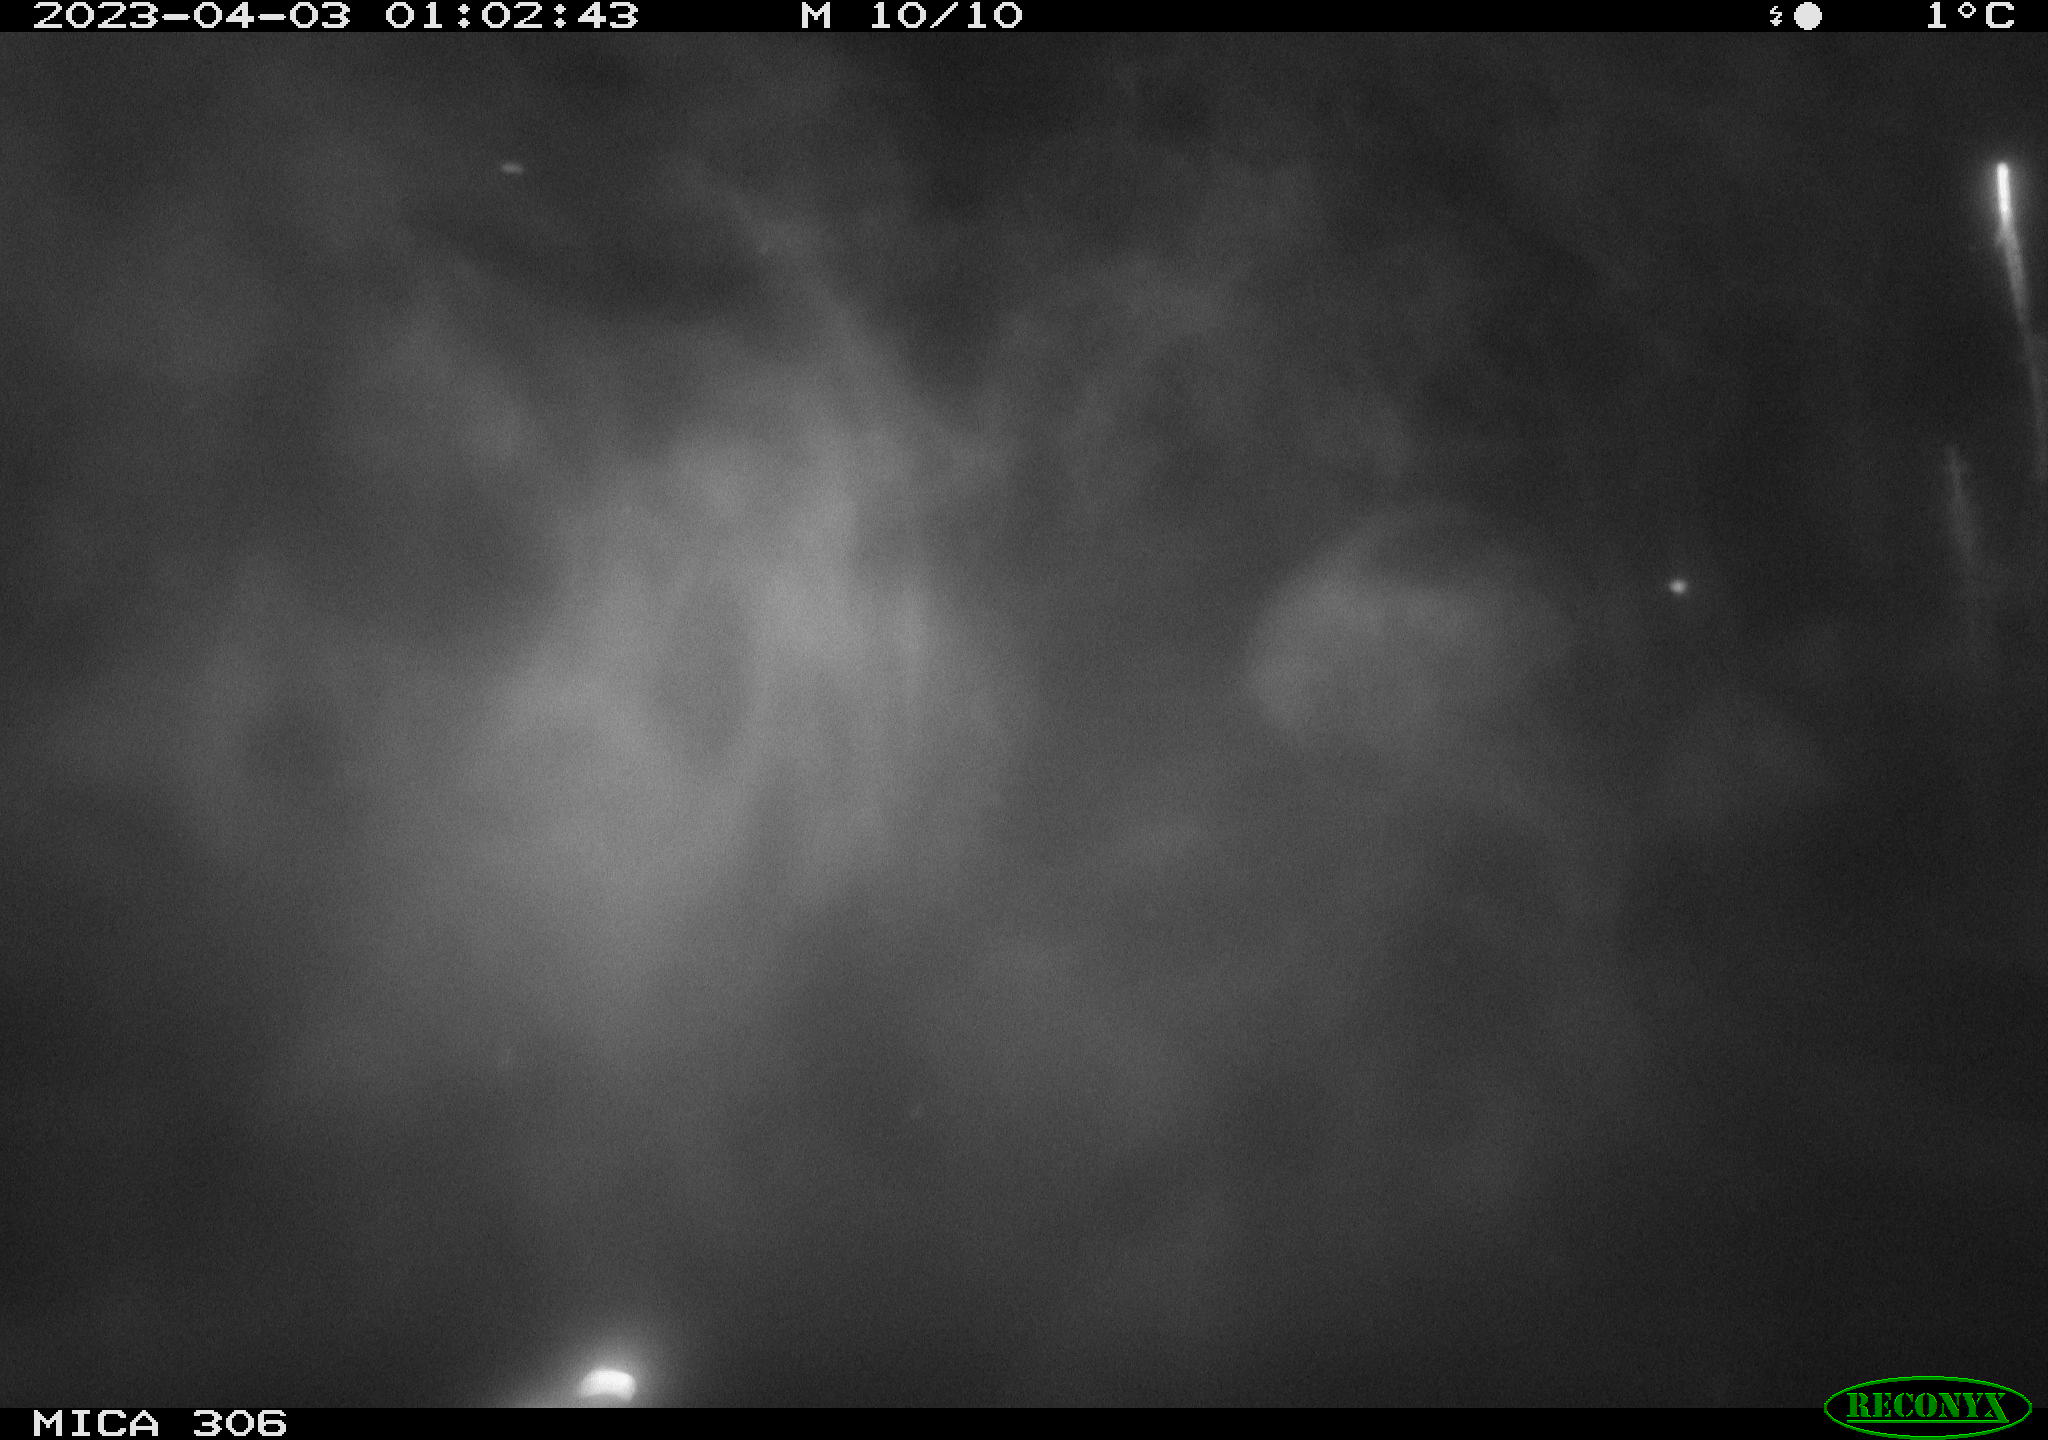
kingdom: Animalia
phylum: Chordata
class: Aves
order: Anseriformes
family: Anatidae
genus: Anas
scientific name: Anas
